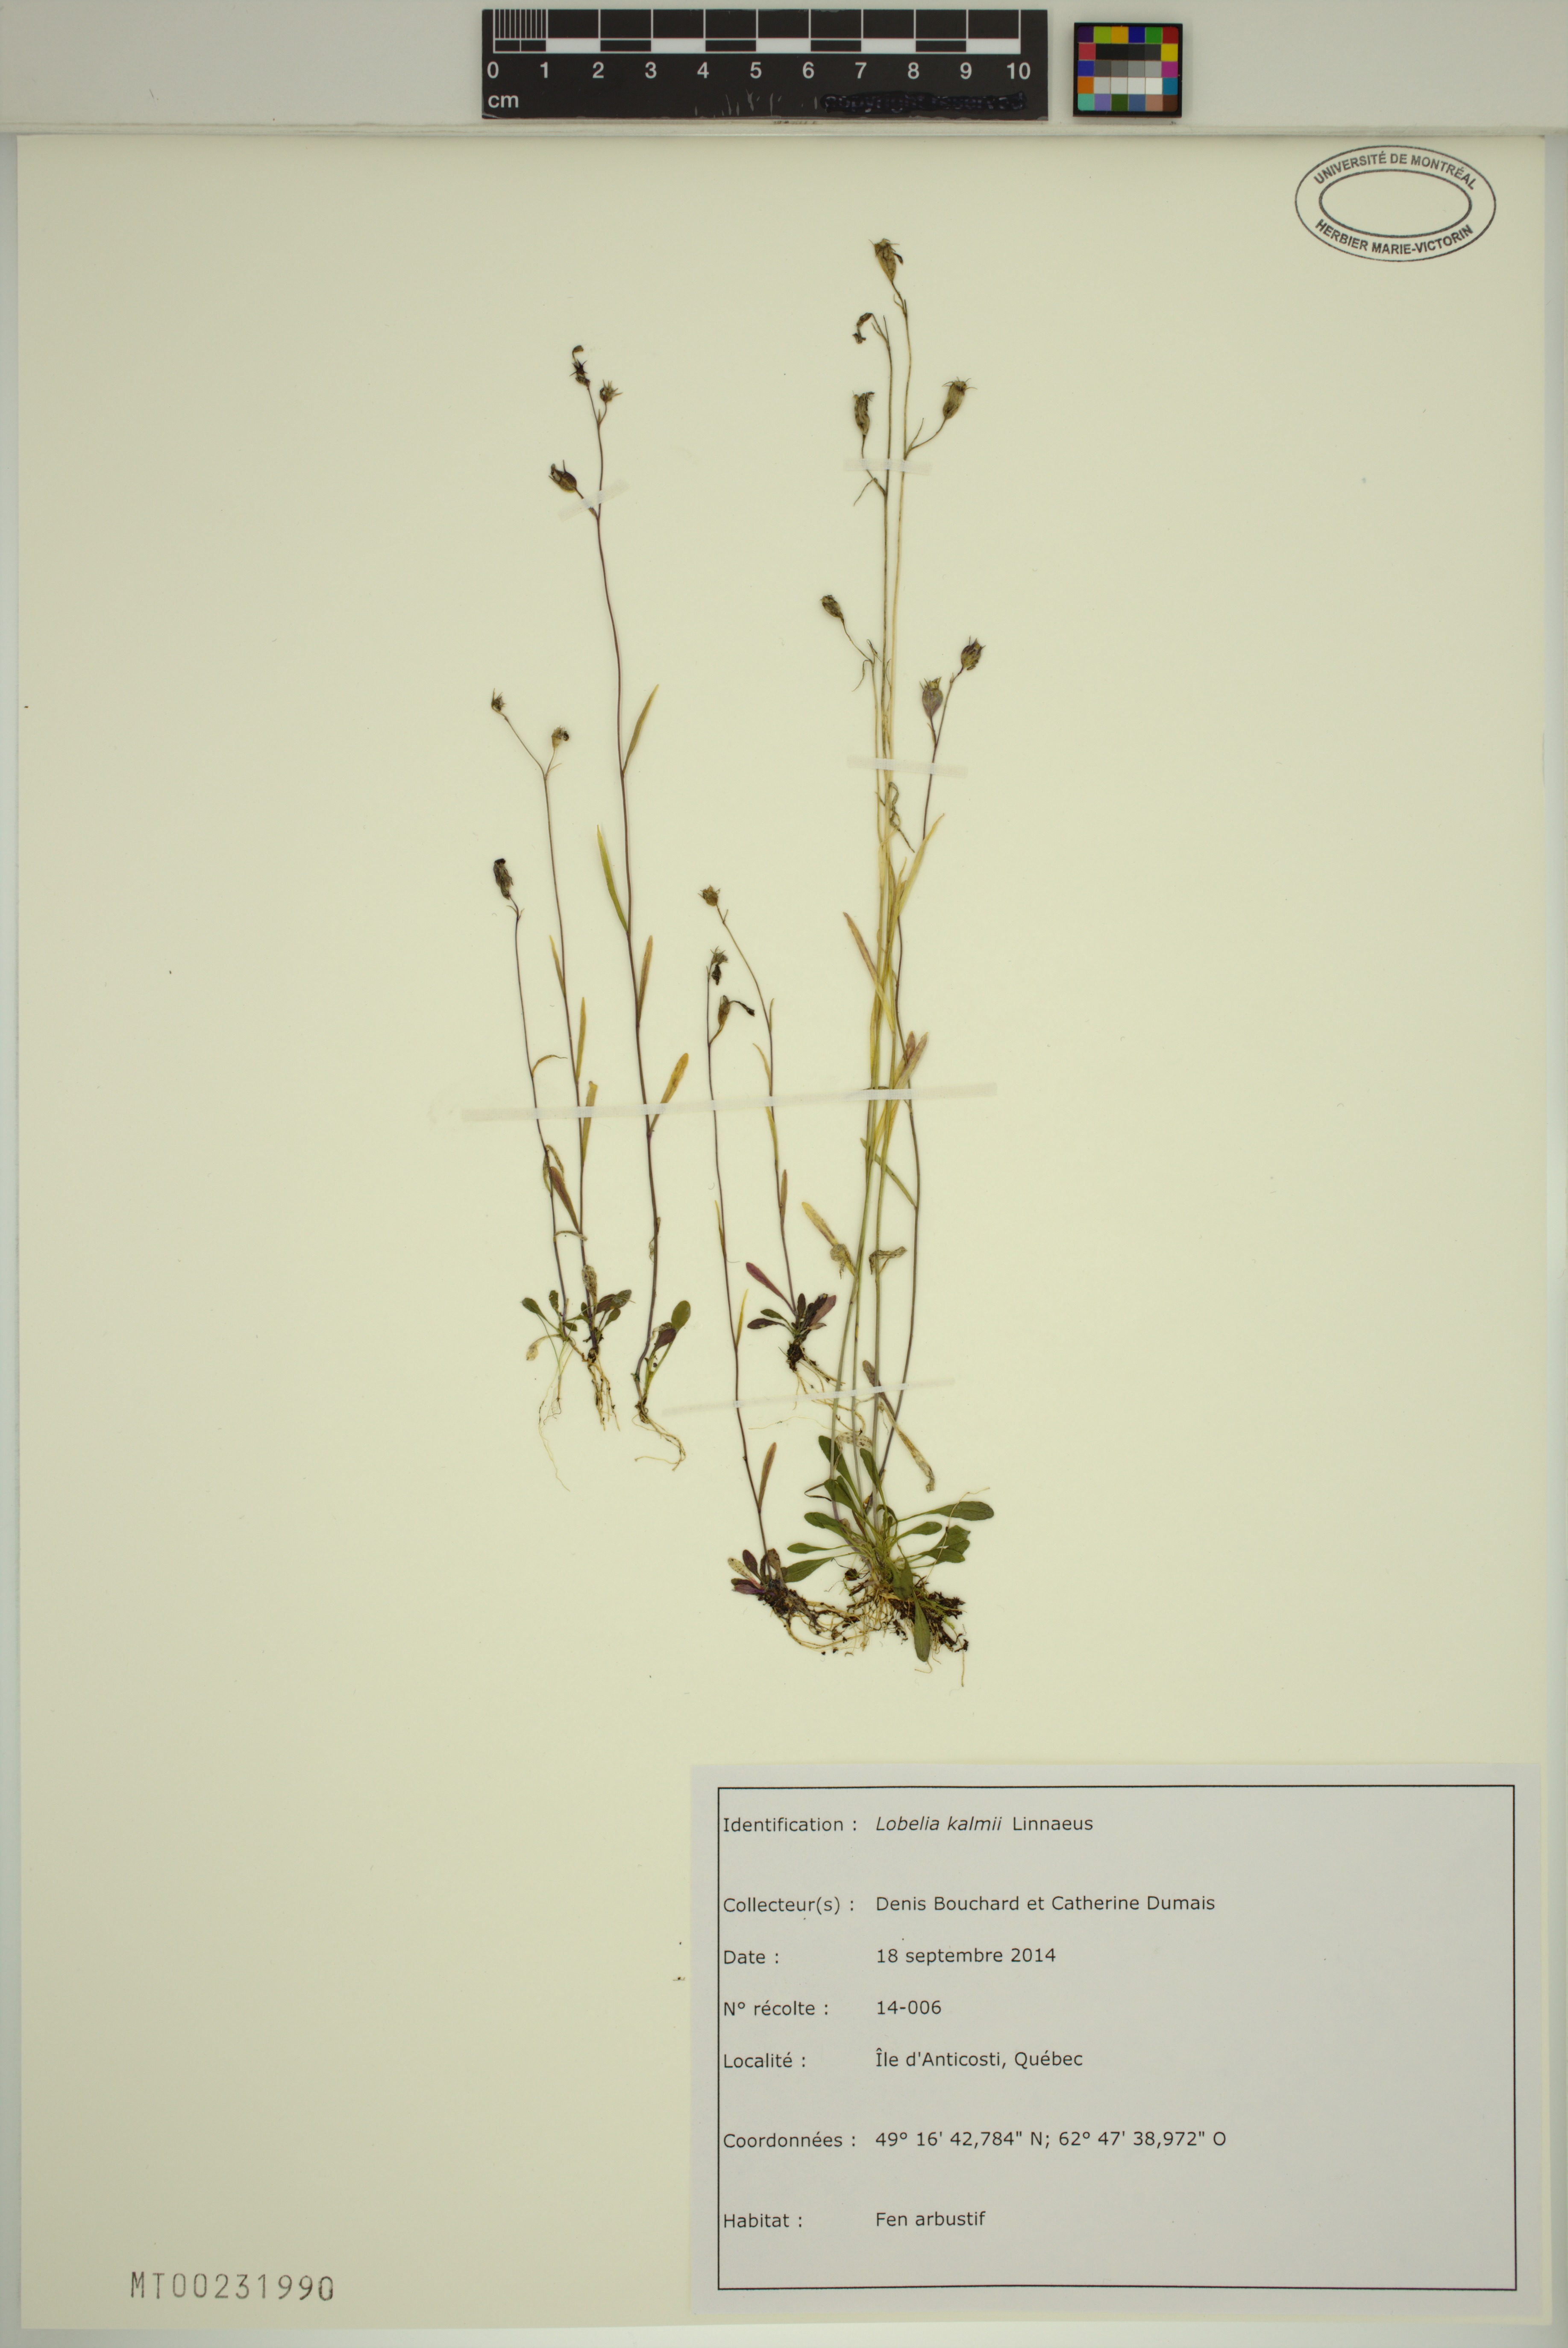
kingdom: Plantae
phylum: Tracheophyta
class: Magnoliopsida
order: Asterales
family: Campanulaceae
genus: Lobelia
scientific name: Lobelia kalmii
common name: Kalm's lobelia
